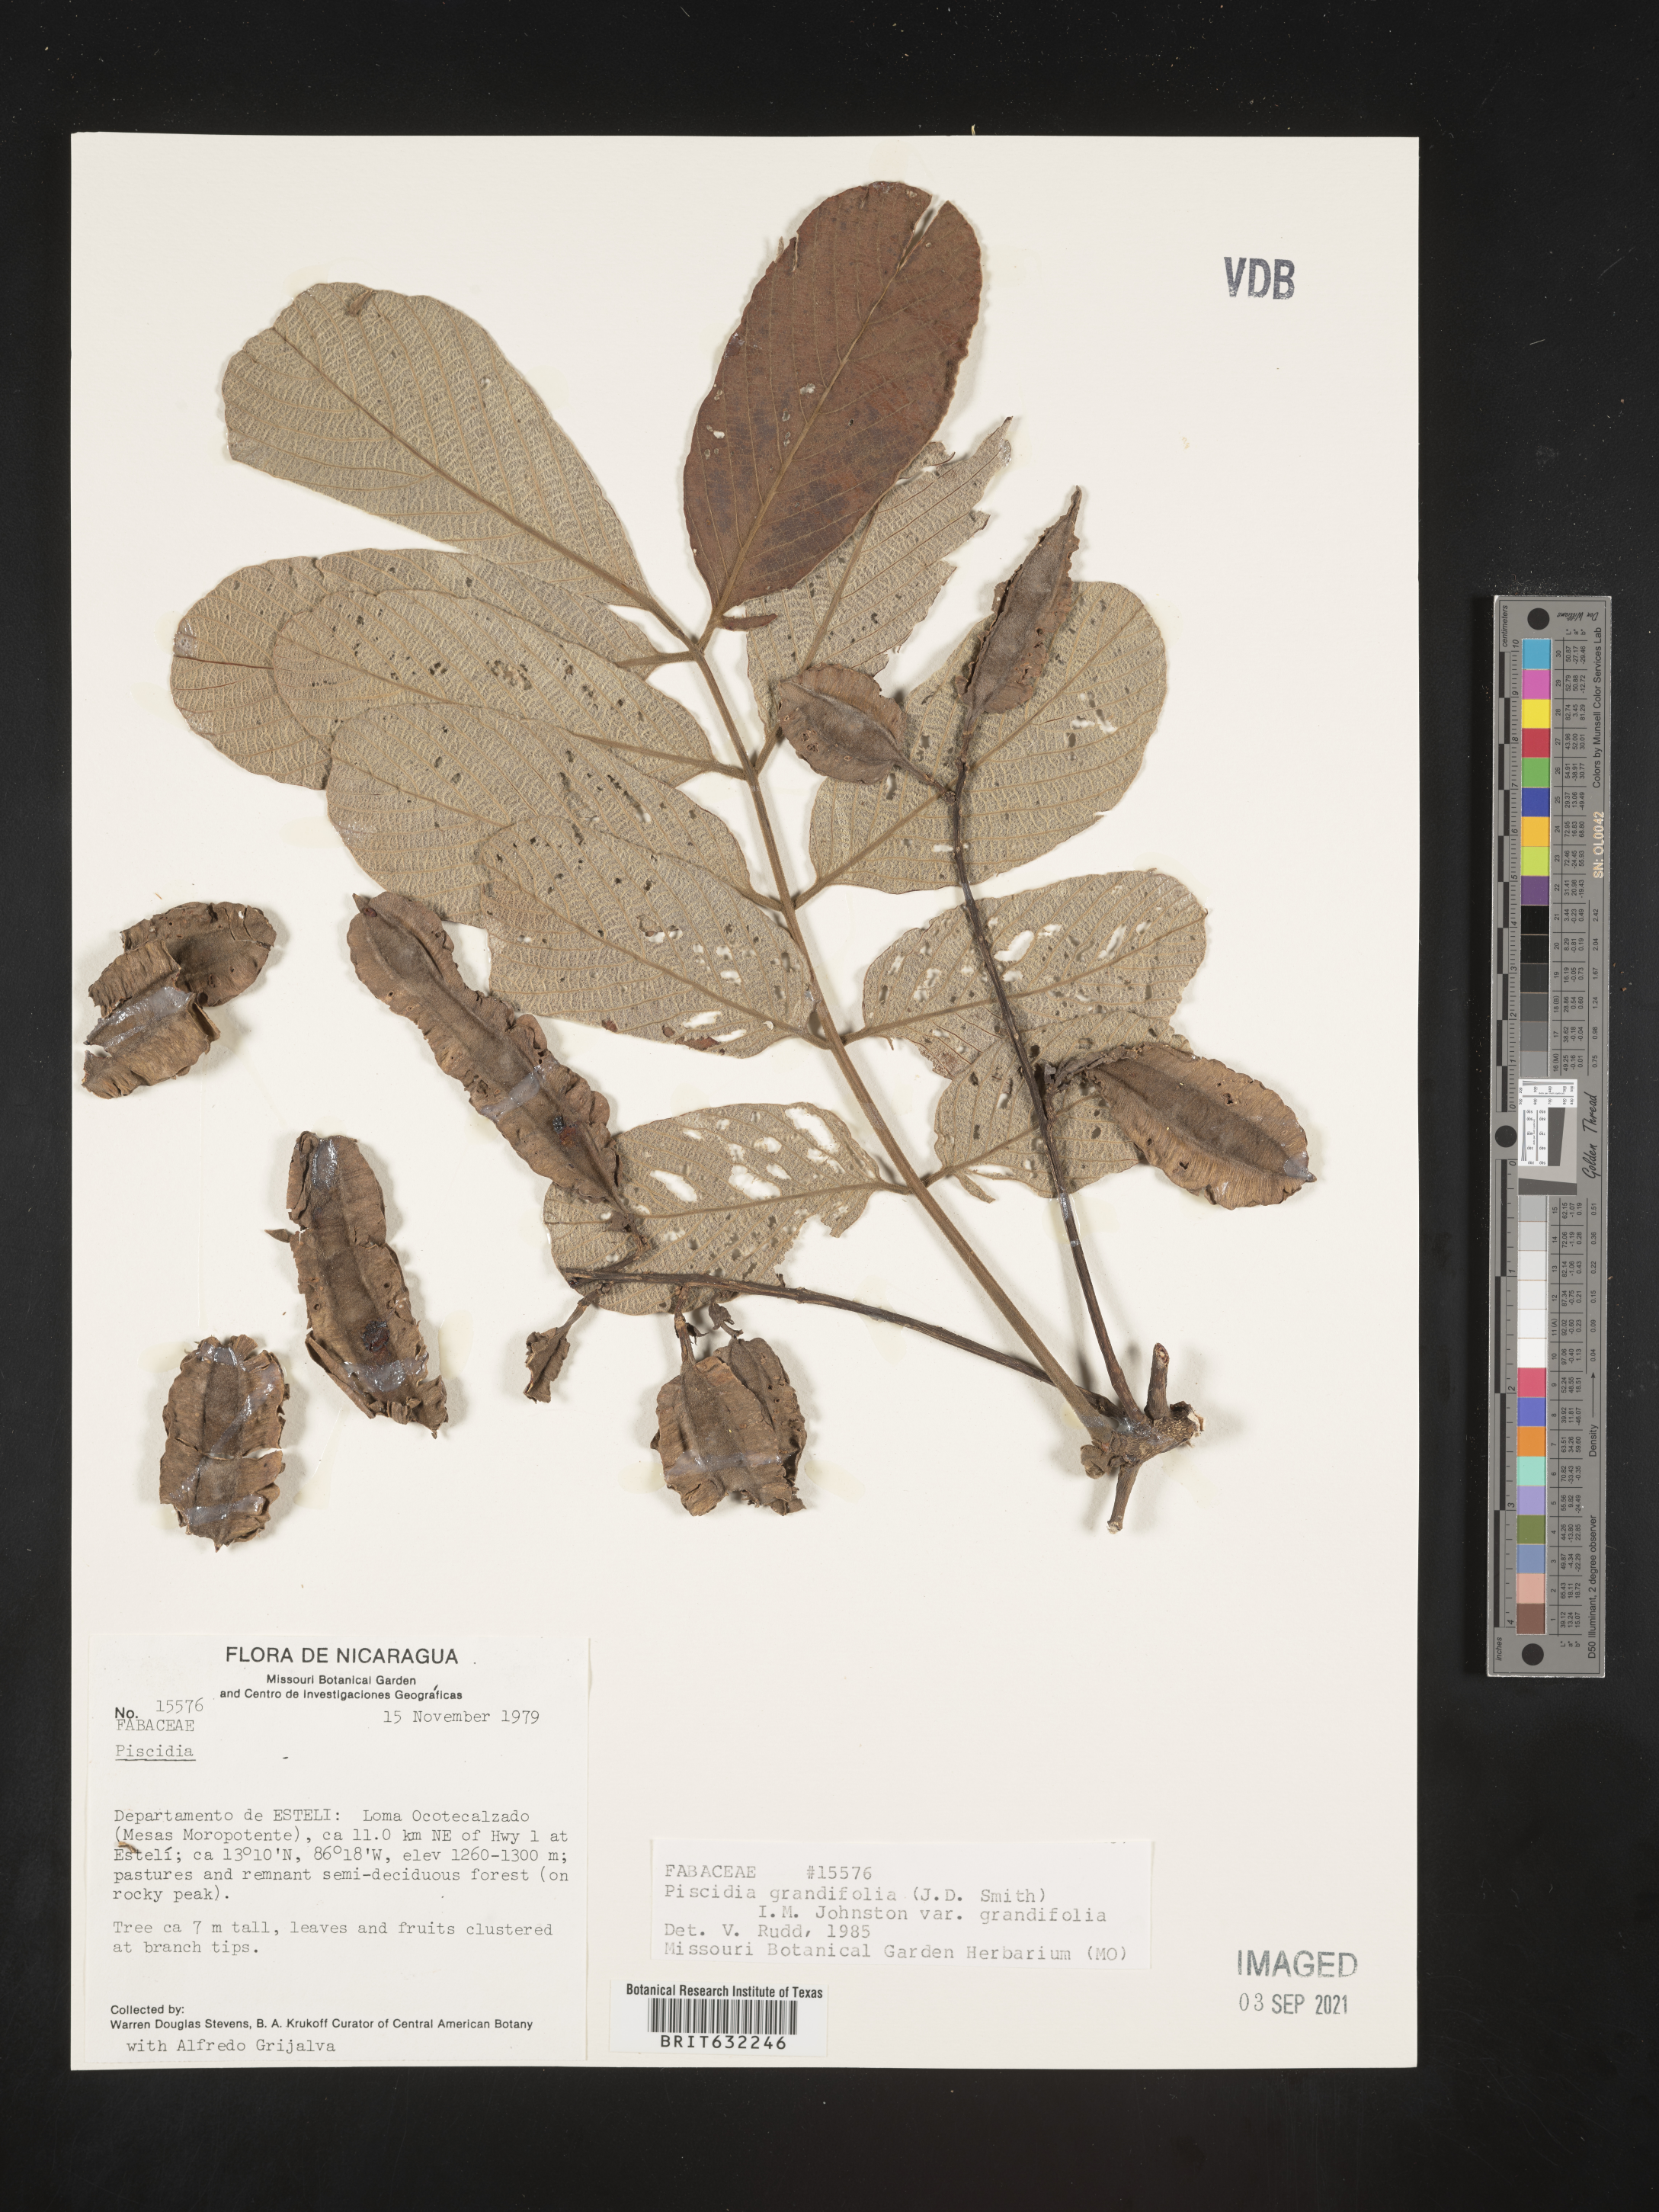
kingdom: Plantae
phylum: Tracheophyta
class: Magnoliopsida
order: Fabales
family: Fabaceae
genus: Piscidia
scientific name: Piscidia grandifolia
